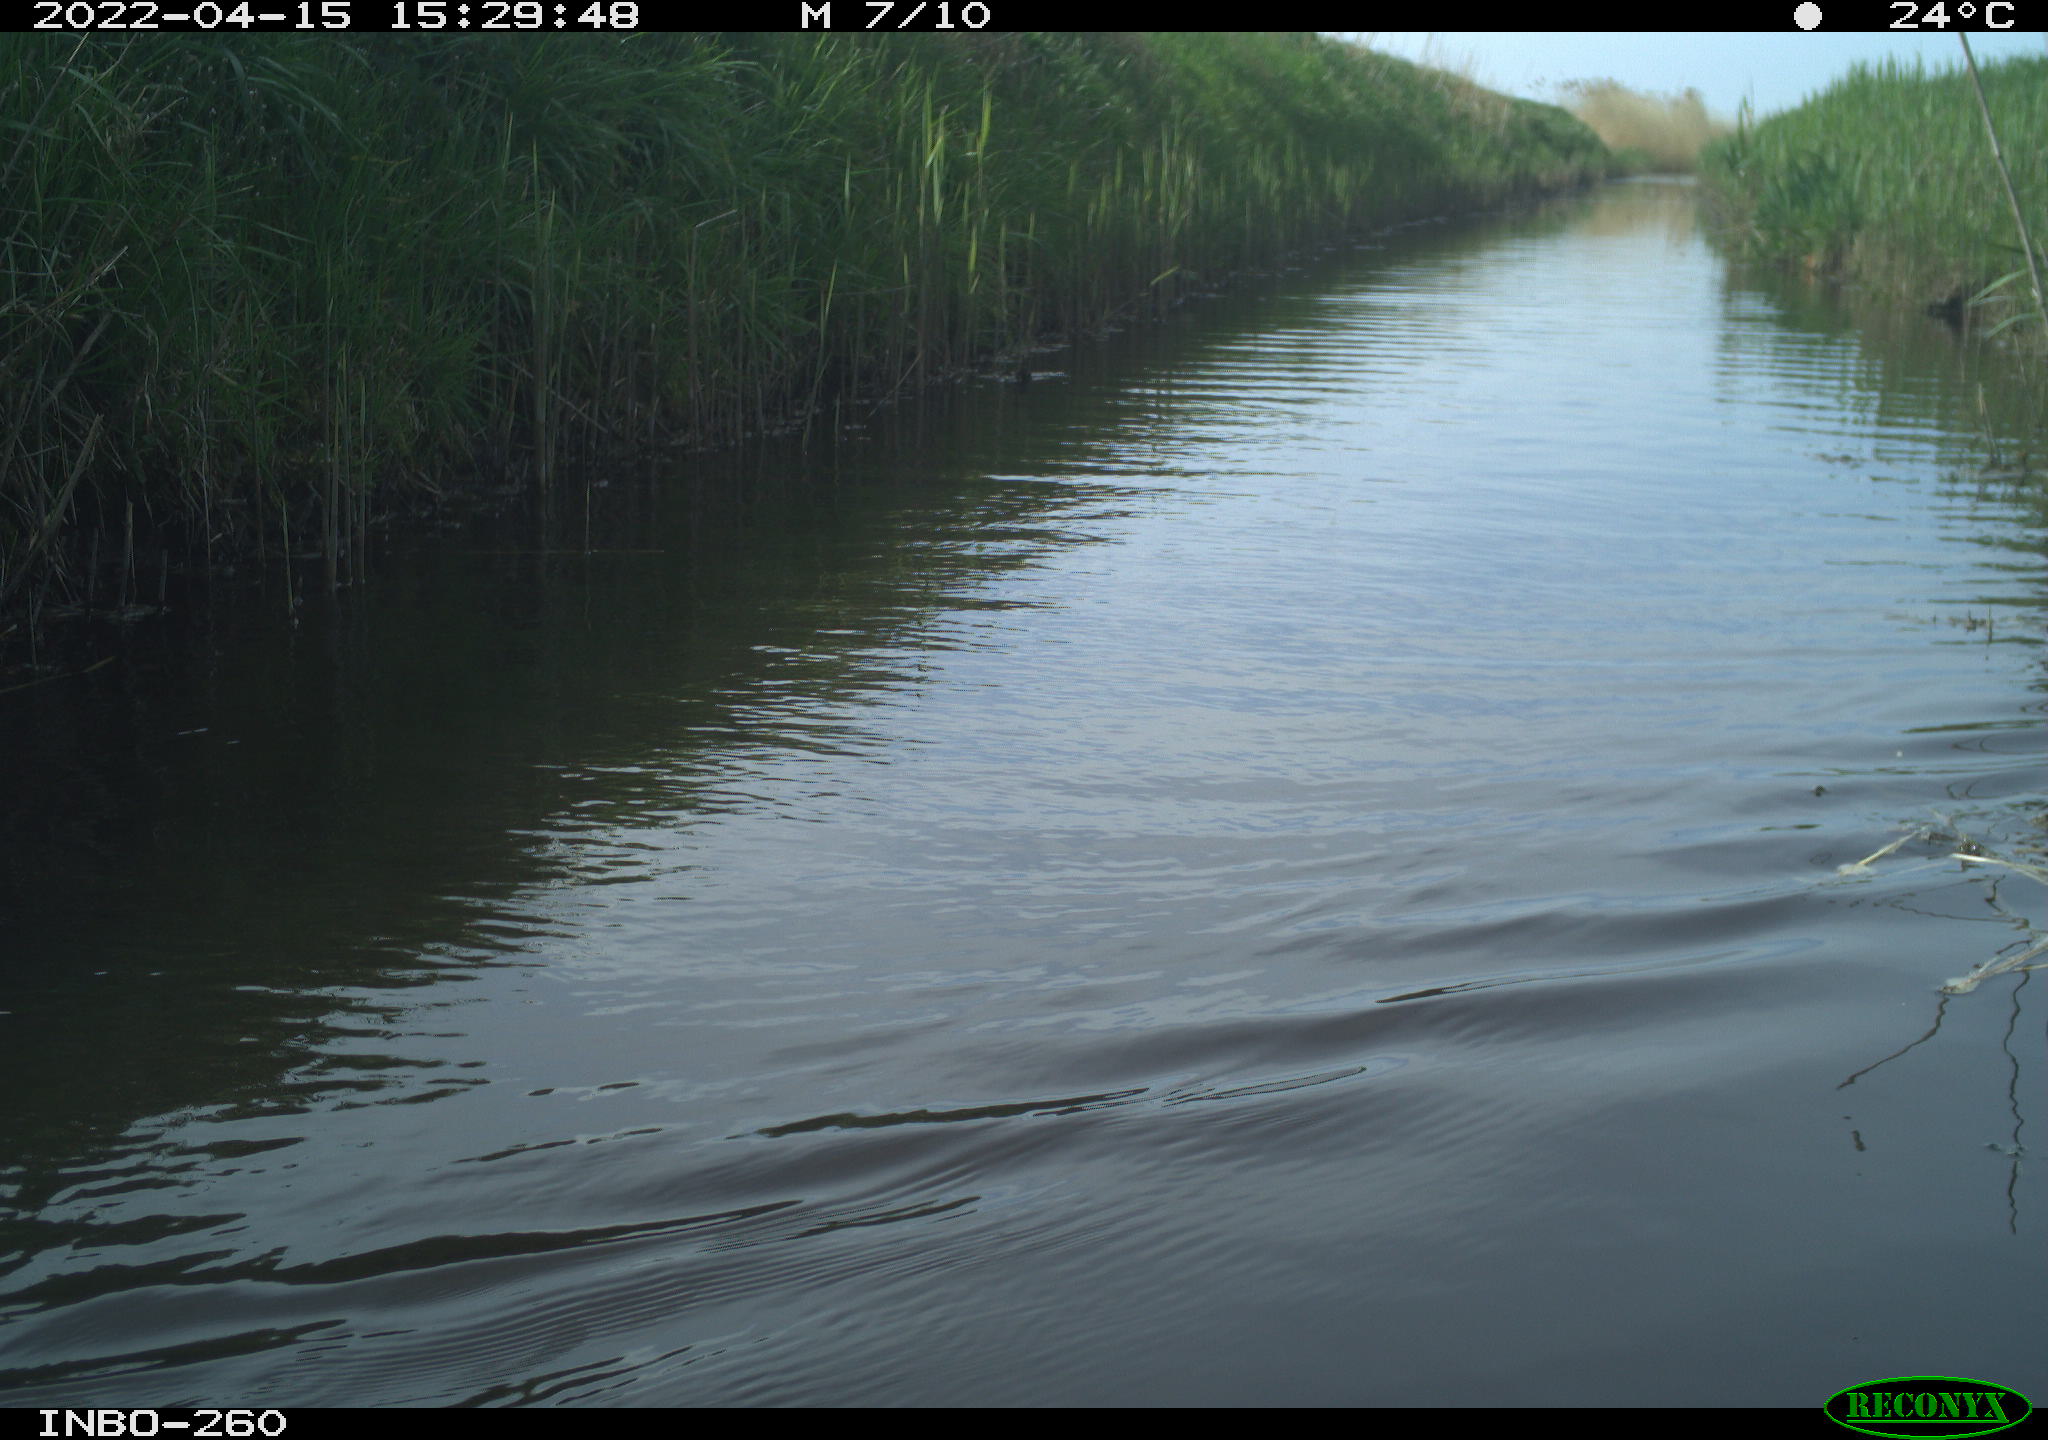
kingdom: Animalia
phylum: Chordata
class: Aves
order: Gruiformes
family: Rallidae
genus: Fulica
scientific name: Fulica atra
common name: Eurasian coot
